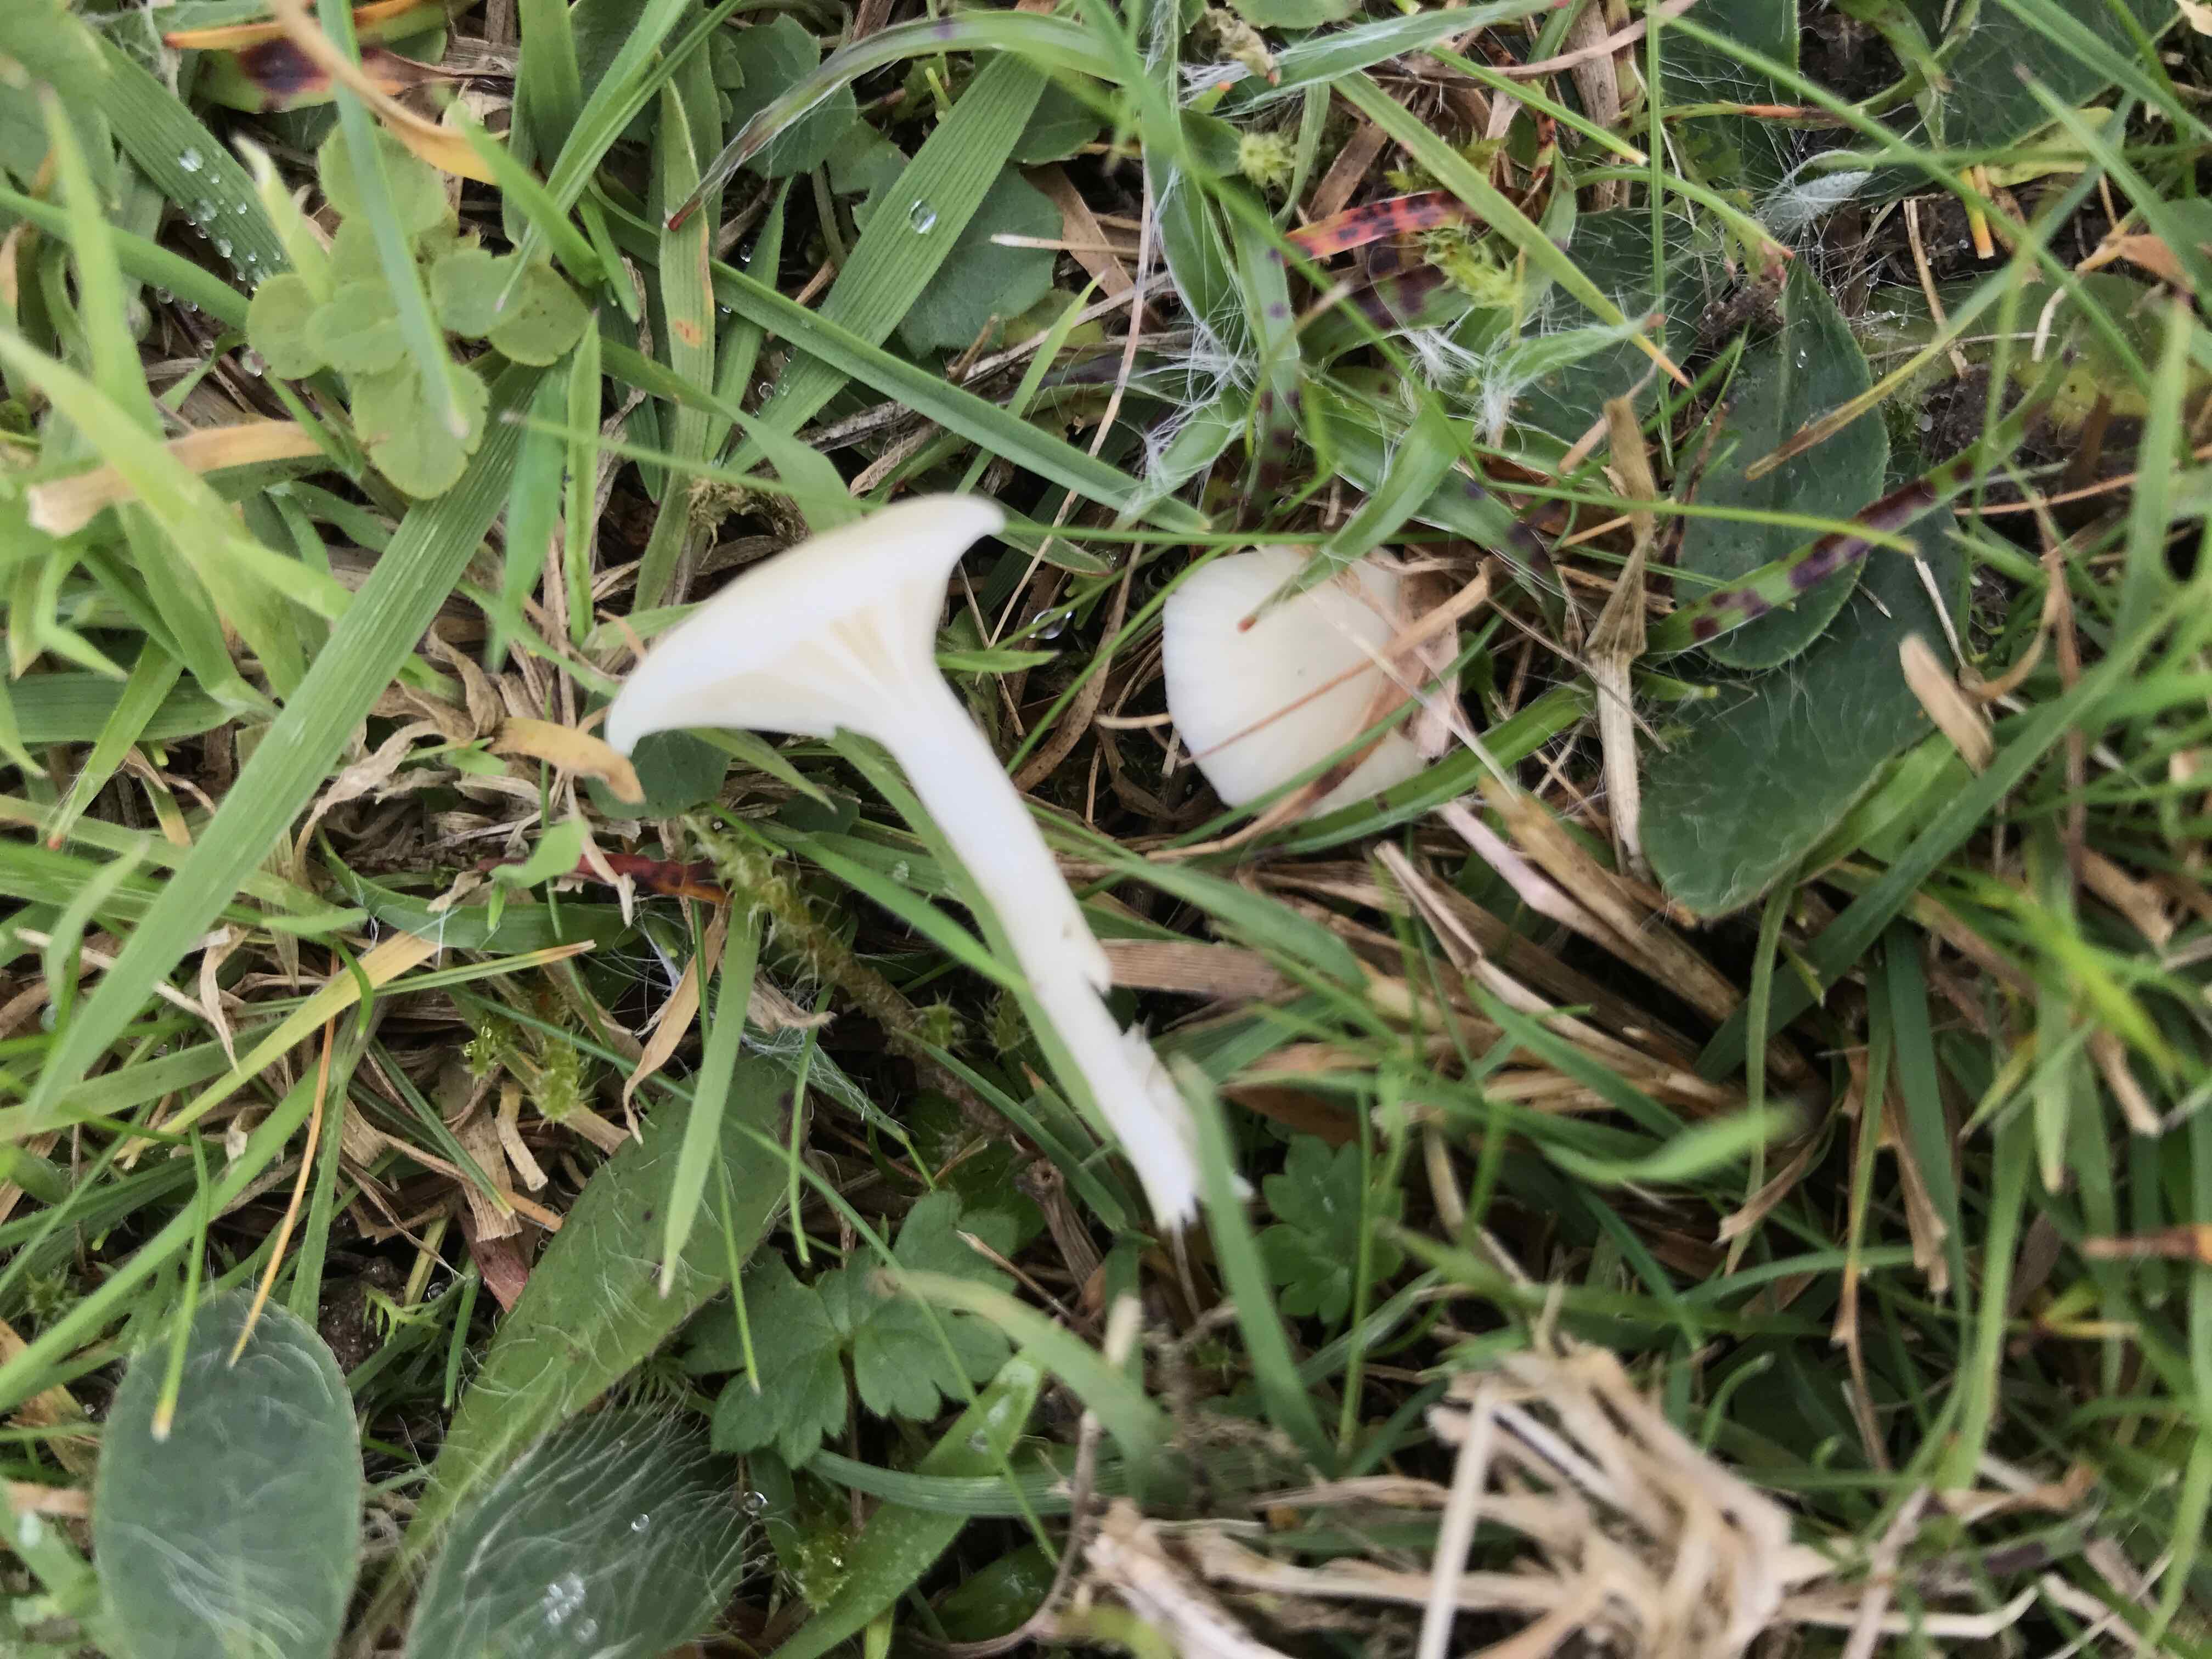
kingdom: Fungi
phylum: Basidiomycota
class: Agaricomycetes
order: Agaricales
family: Hygrophoraceae
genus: Cuphophyllus
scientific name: Cuphophyllus
